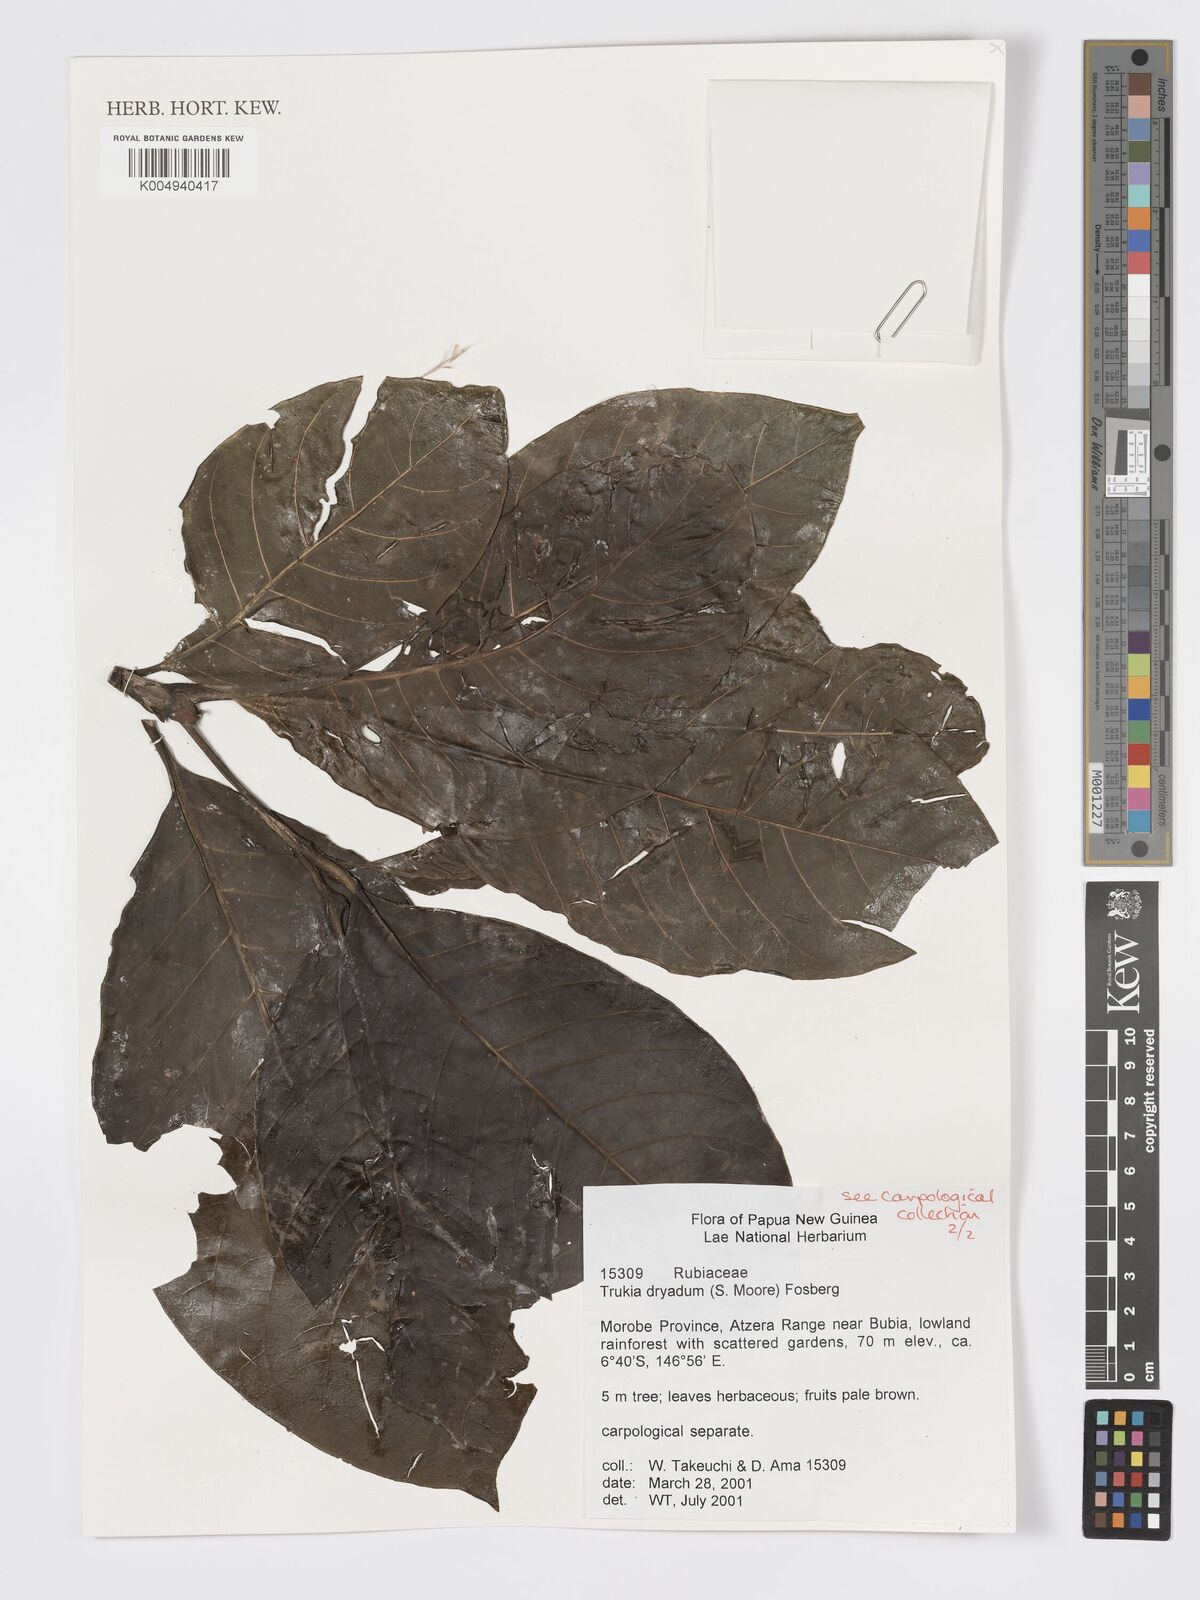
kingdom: Plantae
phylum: Tracheophyta
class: Magnoliopsida
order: Gentianales
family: Rubiaceae
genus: Atractocarpus
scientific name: Atractocarpus macarthurii
